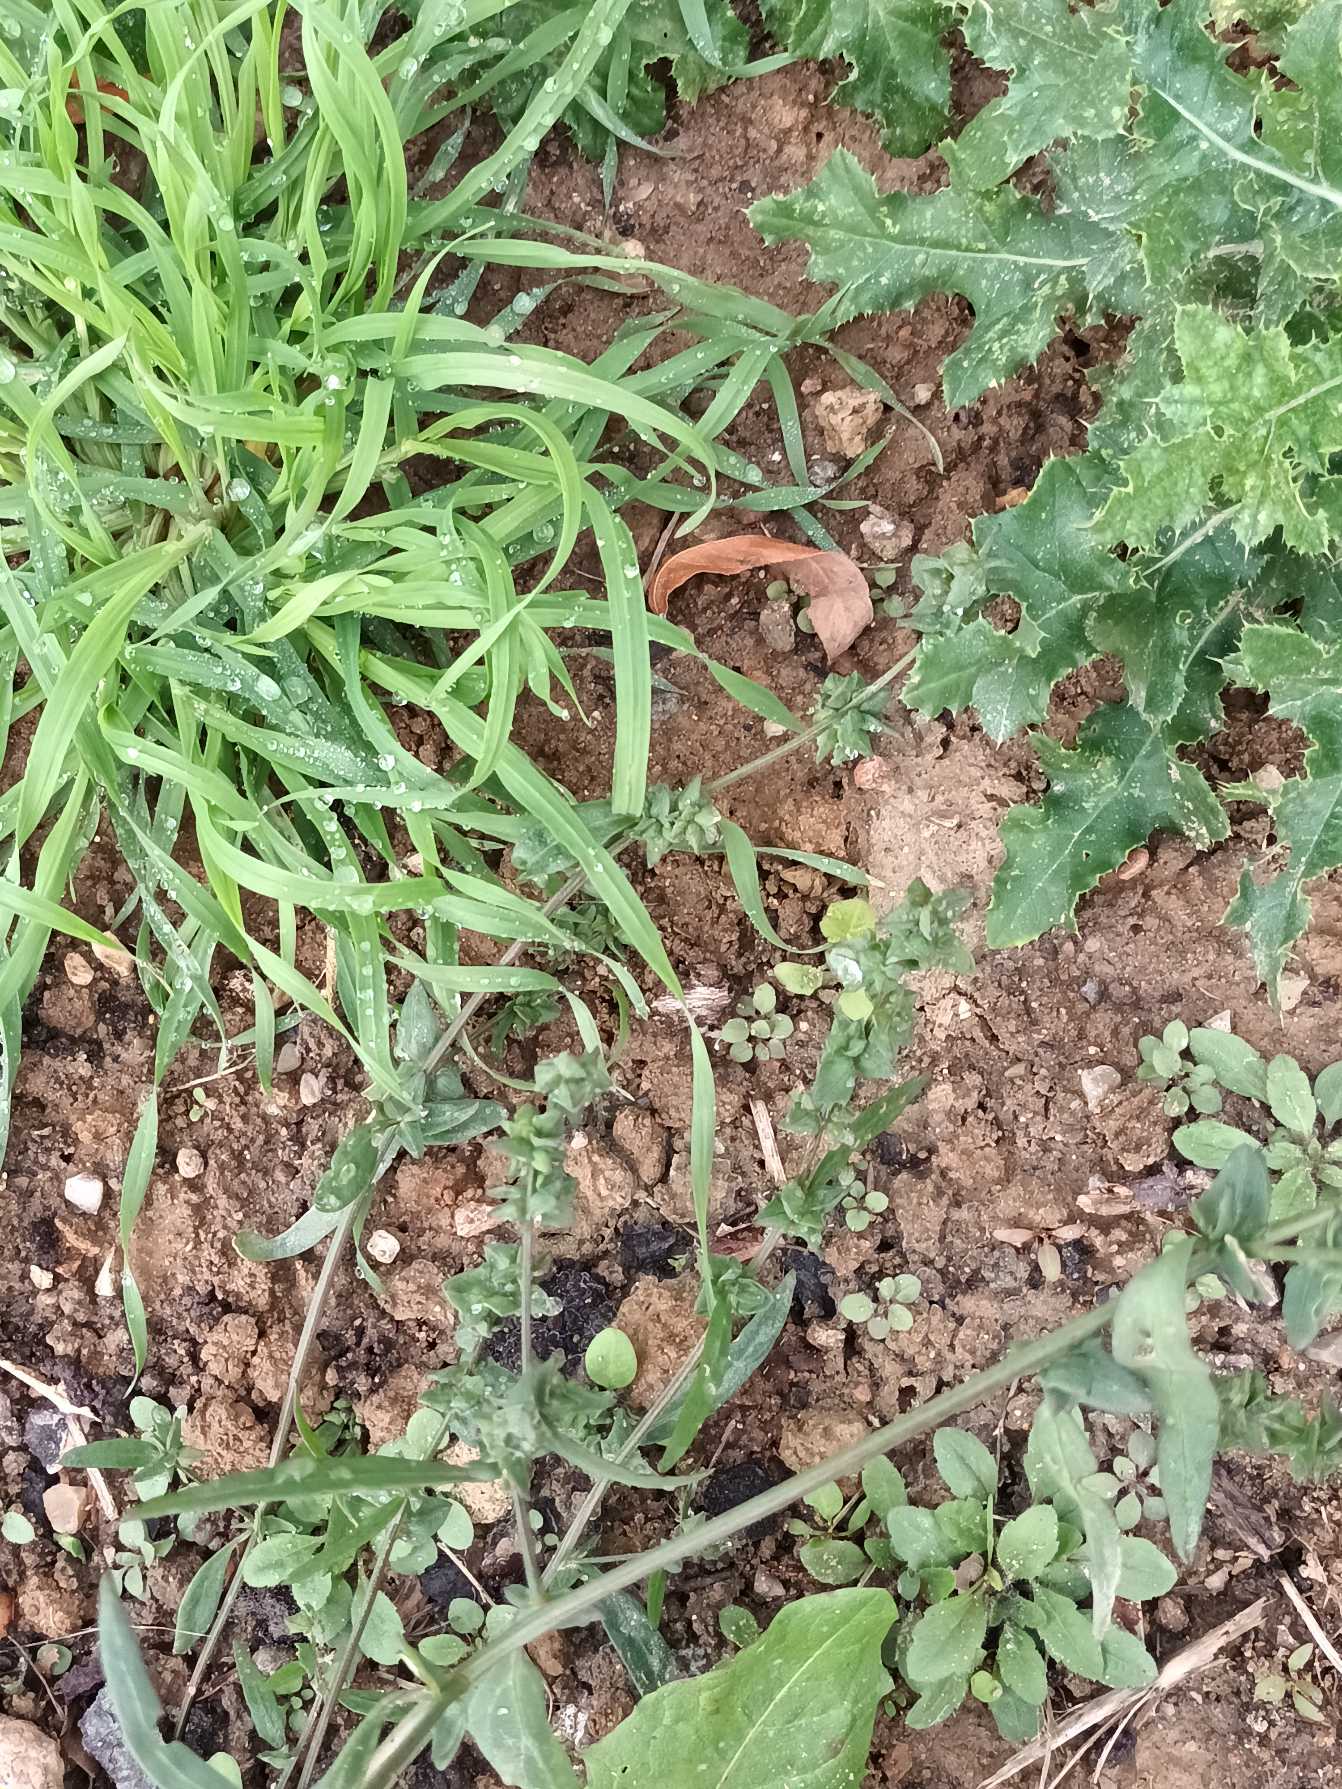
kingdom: Plantae
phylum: Tracheophyta
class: Magnoliopsida
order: Caryophyllales
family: Amaranthaceae
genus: Atriplex
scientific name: Atriplex patula
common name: Svine-mælde
